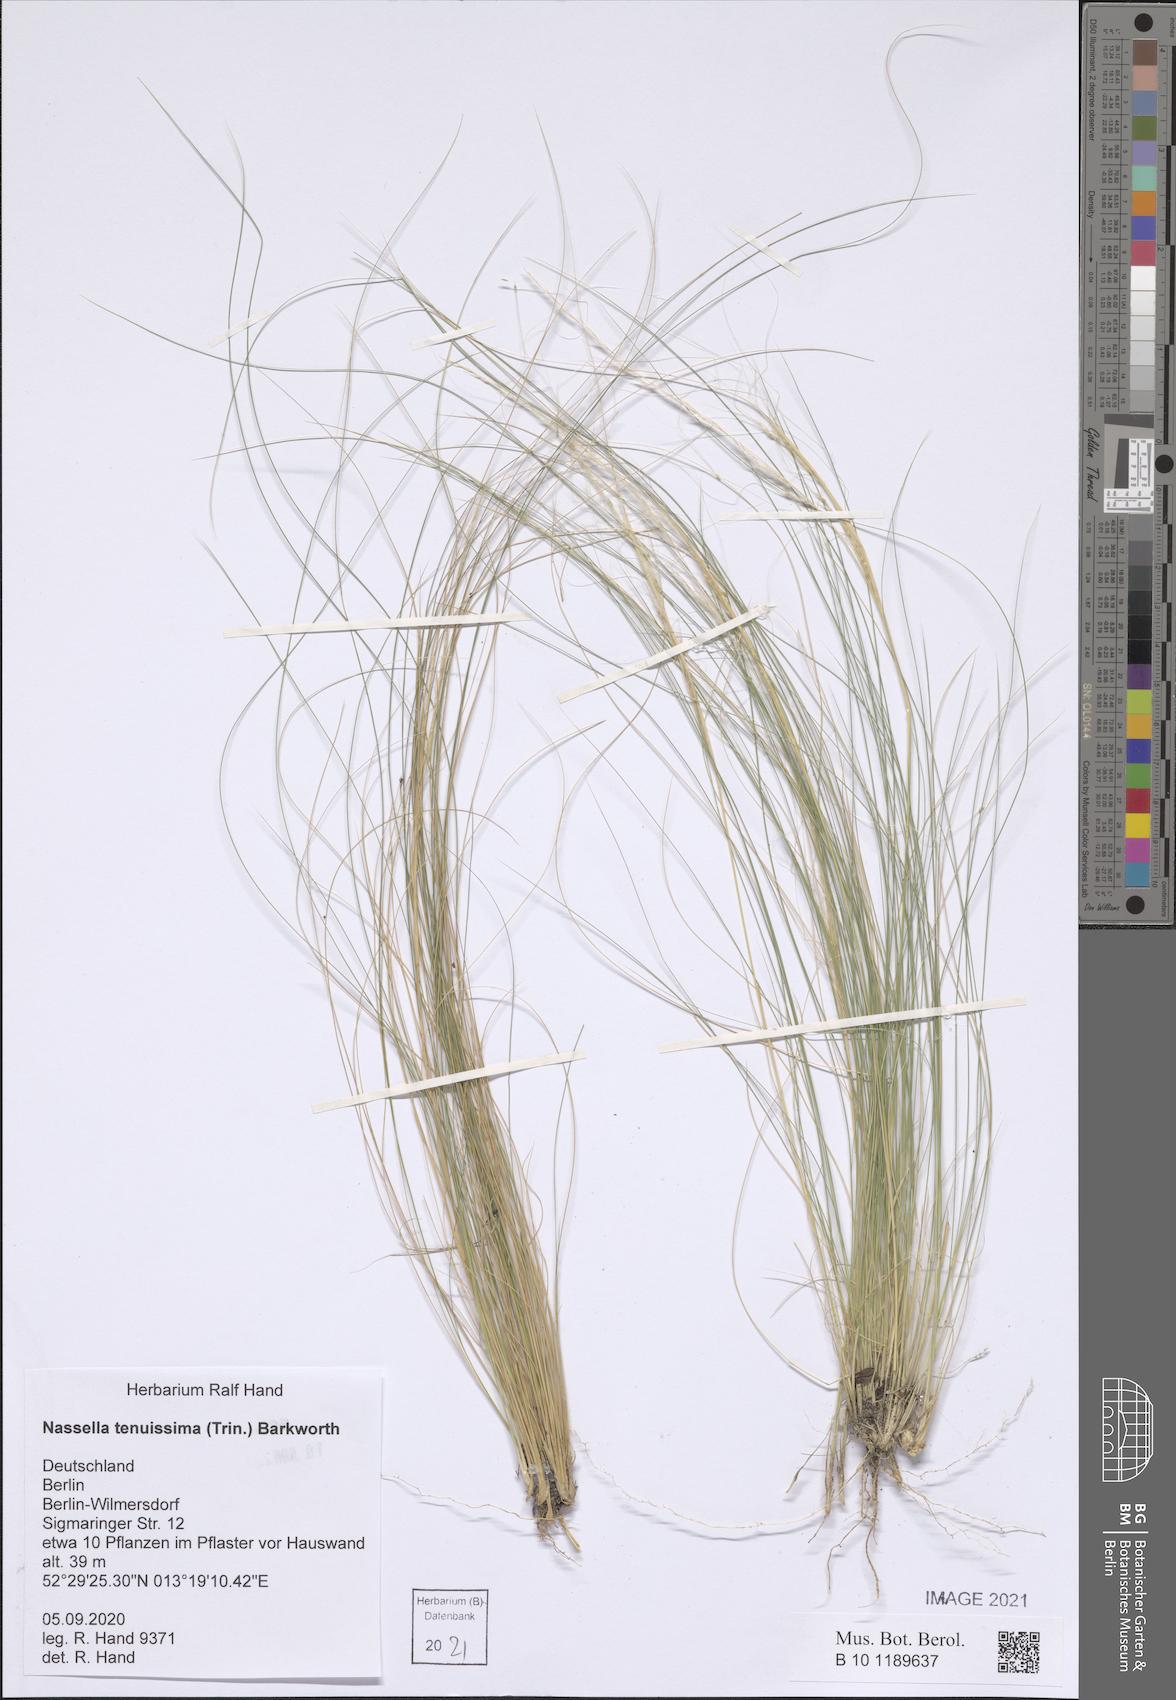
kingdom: Plantae
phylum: Tracheophyta
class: Liliopsida
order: Poales
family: Poaceae
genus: Nassella
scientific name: Nassella tenuissima
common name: Argentine needlegrass
